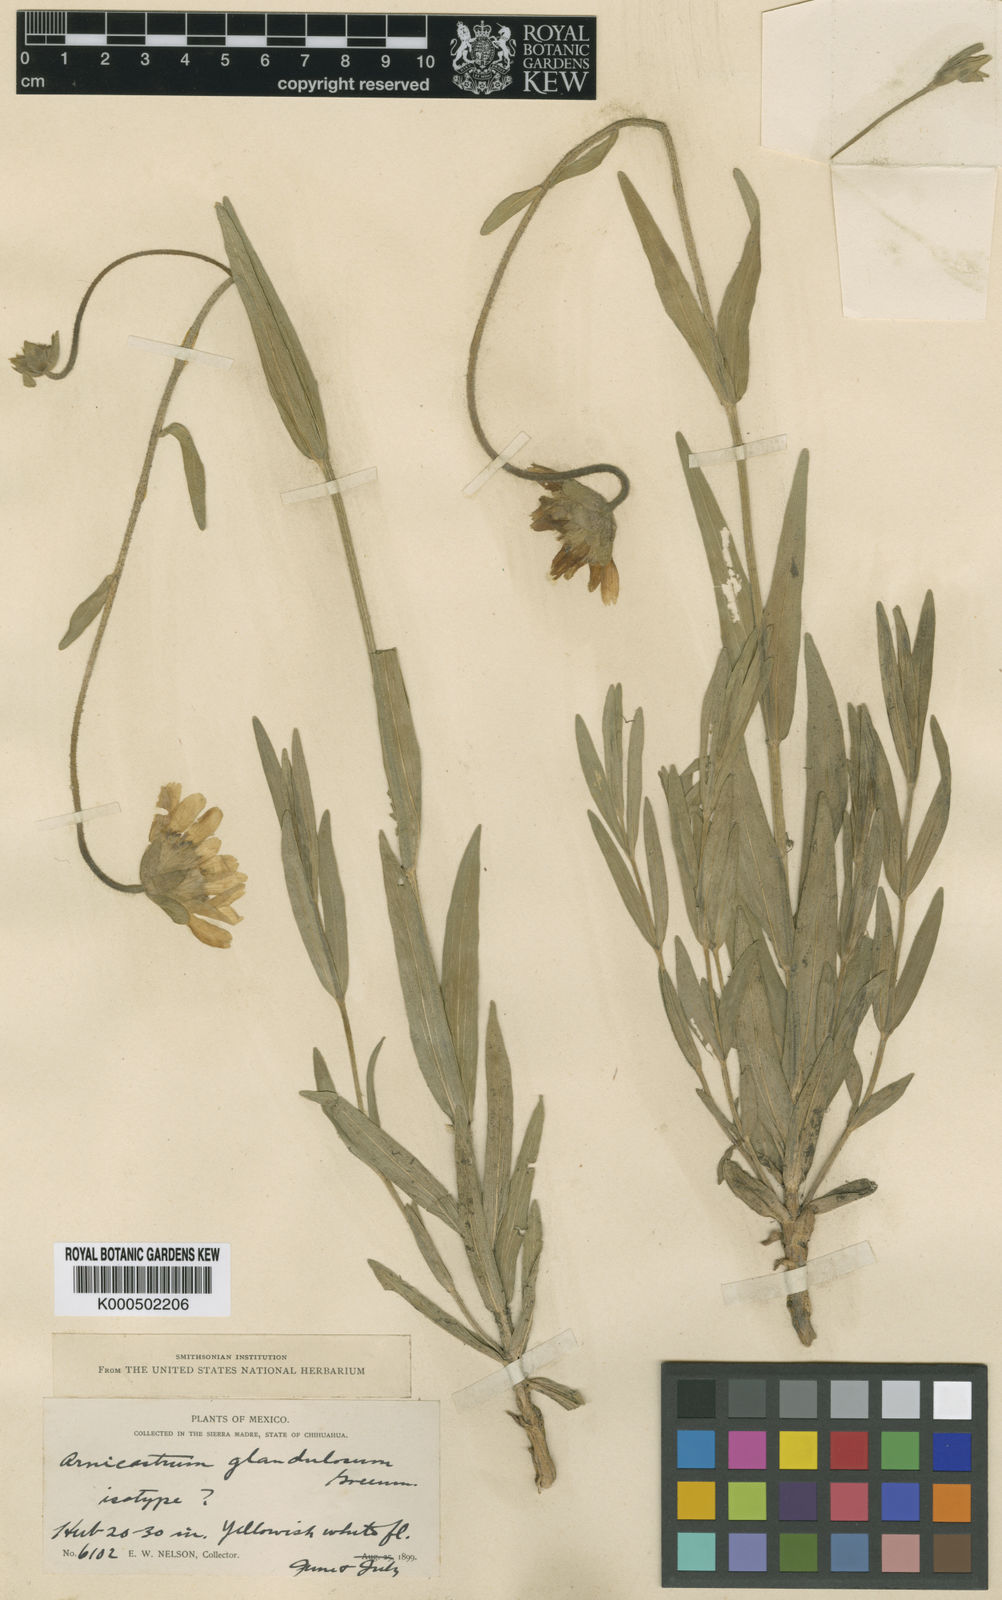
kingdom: Plantae
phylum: Tracheophyta
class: Magnoliopsida
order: Asterales
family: Asteraceae
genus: Arnicastrum
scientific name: Arnicastrum glandulosum
